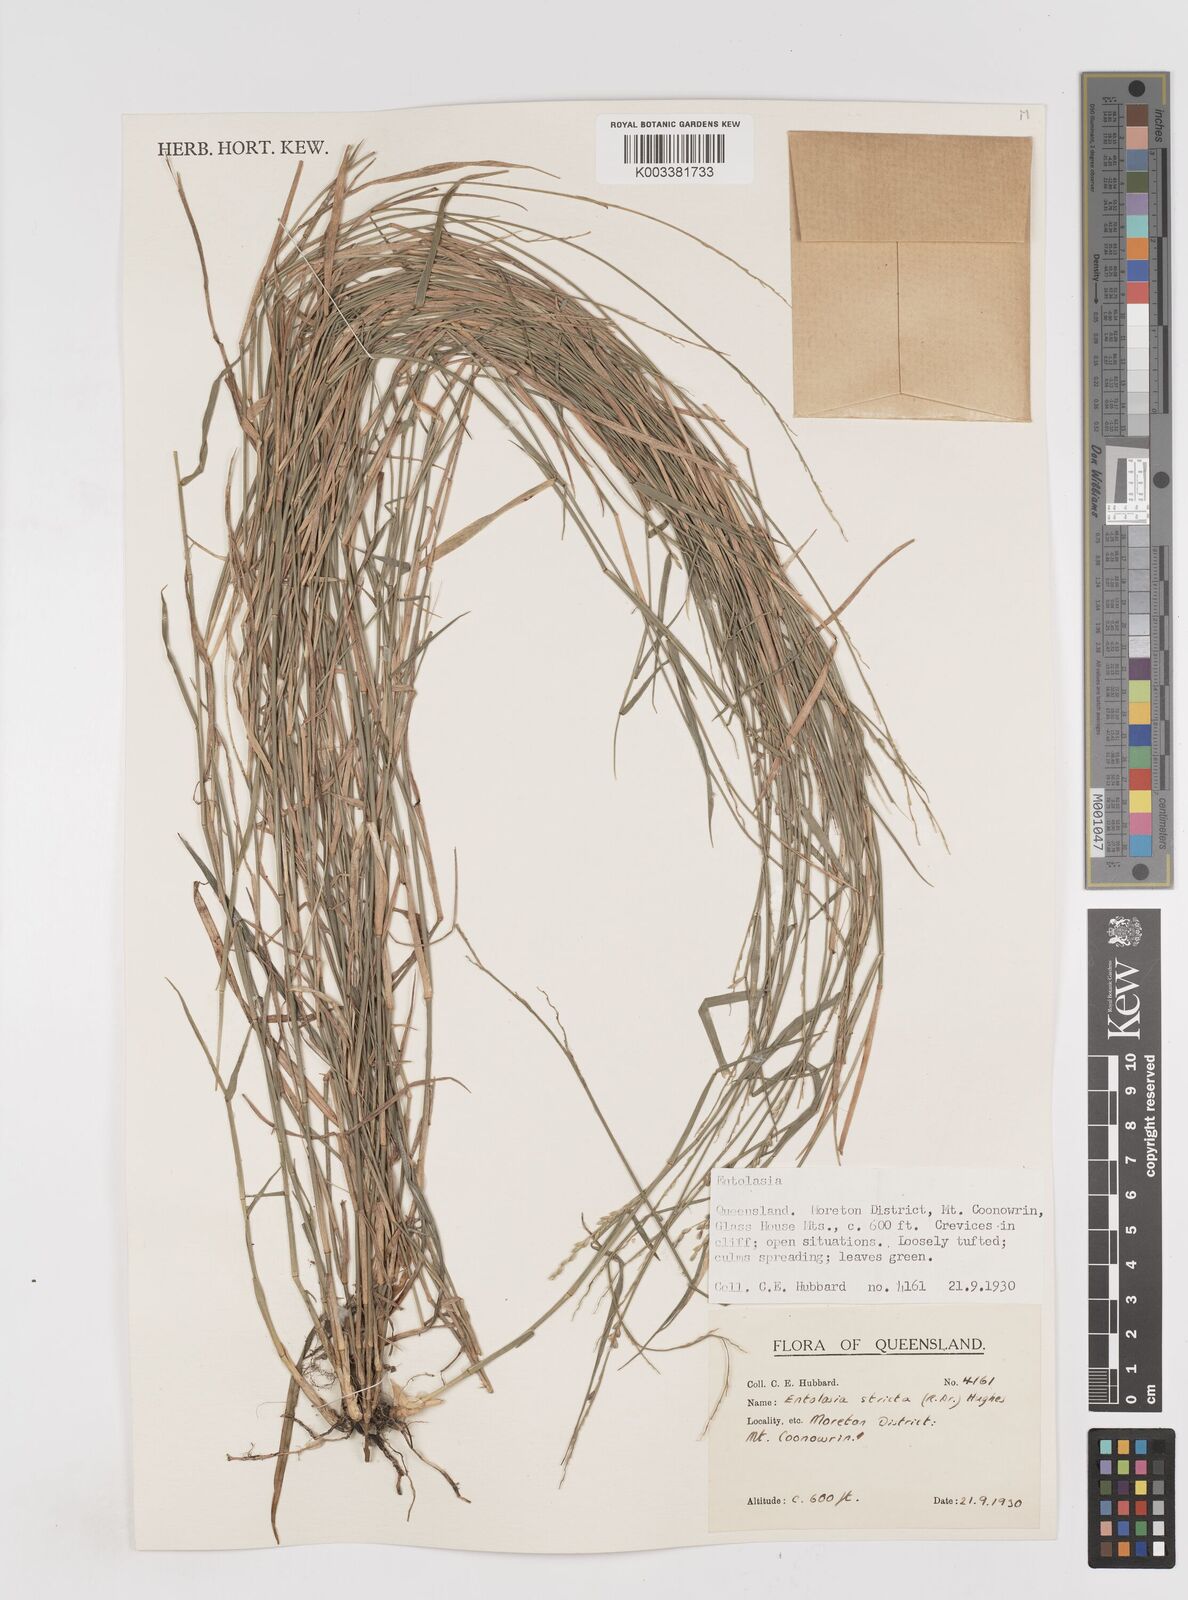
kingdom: Plantae
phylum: Tracheophyta
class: Liliopsida
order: Poales
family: Poaceae
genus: Entolasia
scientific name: Entolasia stricta
